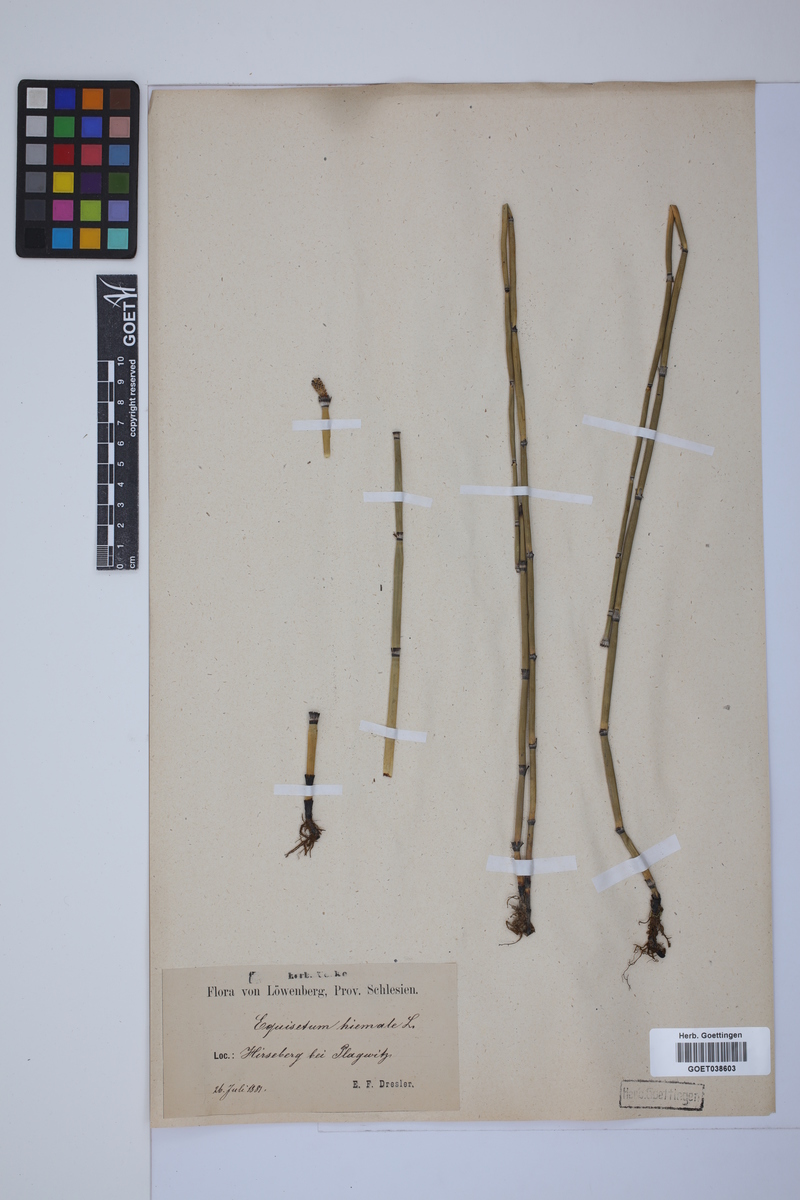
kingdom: Plantae
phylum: Tracheophyta
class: Polypodiopsida
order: Equisetales
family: Equisetaceae
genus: Equisetum
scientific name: Equisetum hyemale
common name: Rough horsetail
